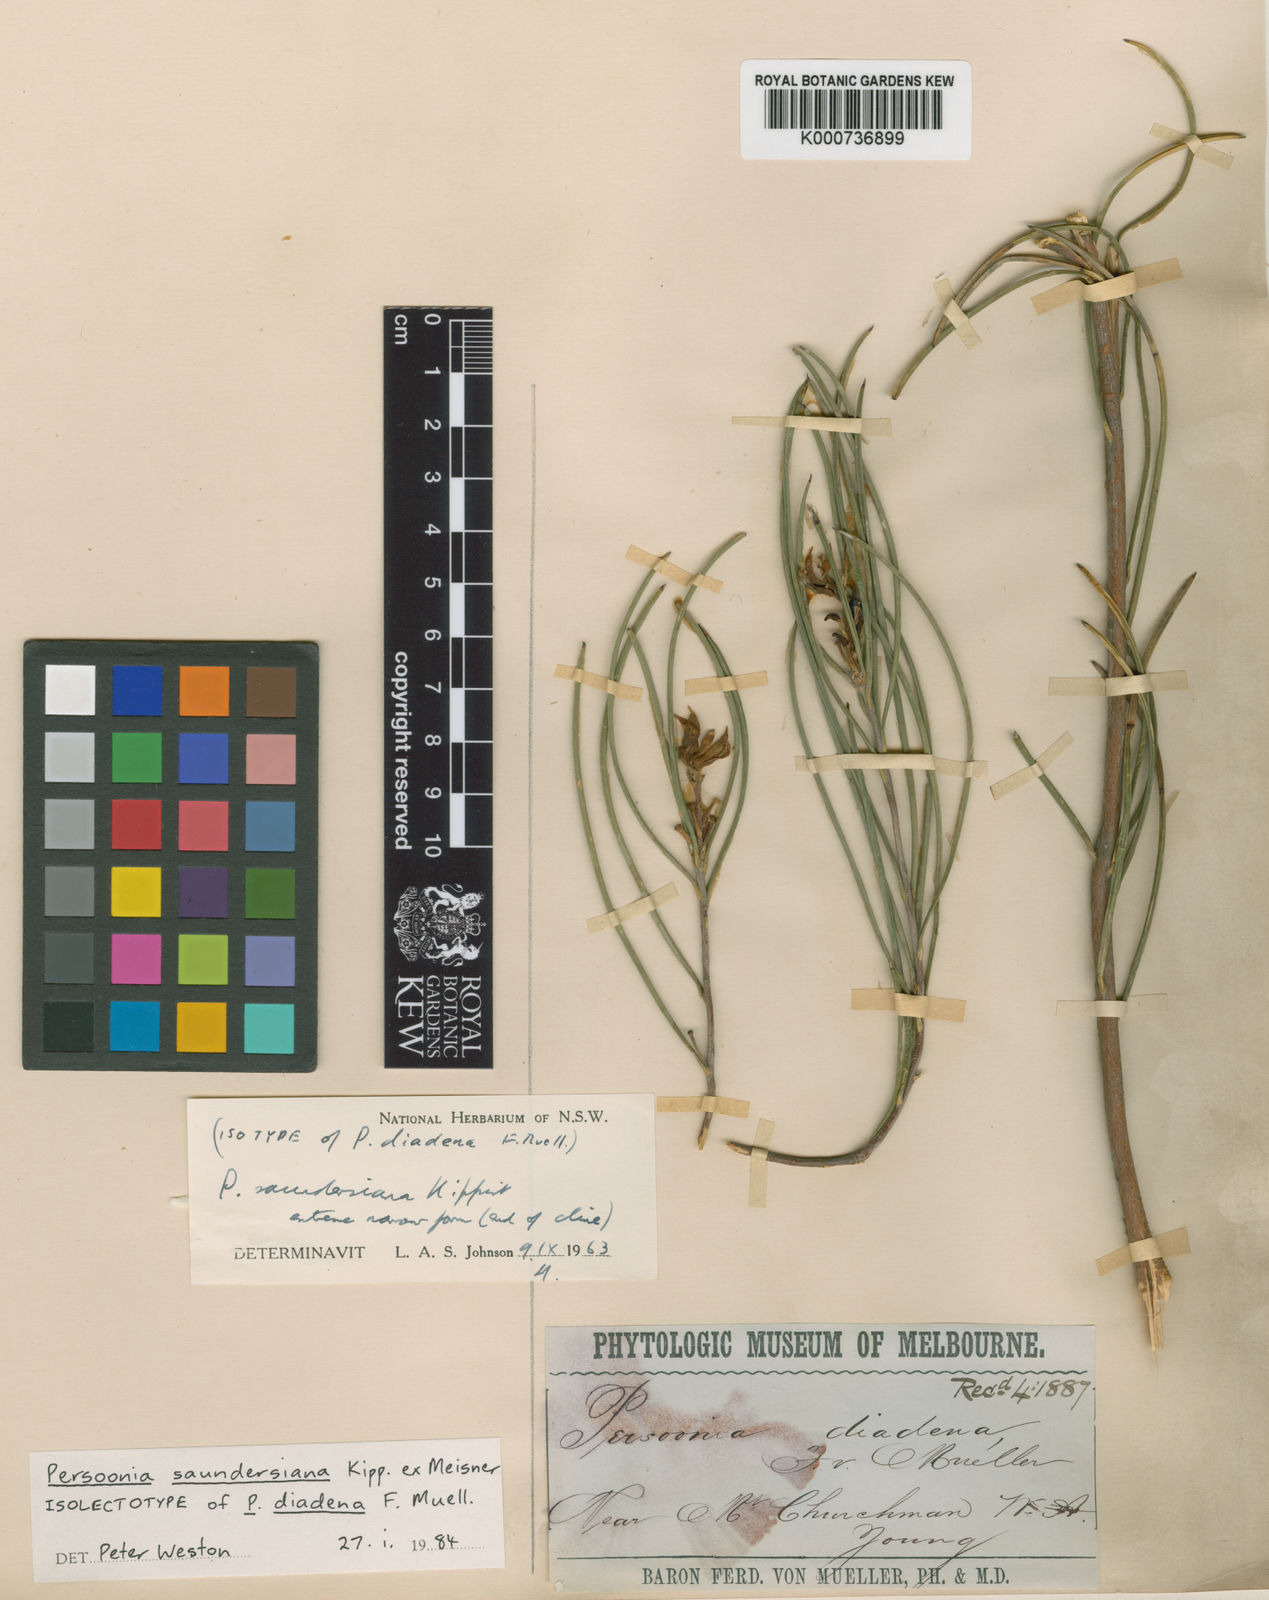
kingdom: Plantae
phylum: Tracheophyta
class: Magnoliopsida
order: Proteales
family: Proteaceae
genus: Persoonia
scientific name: Persoonia saundersiana
